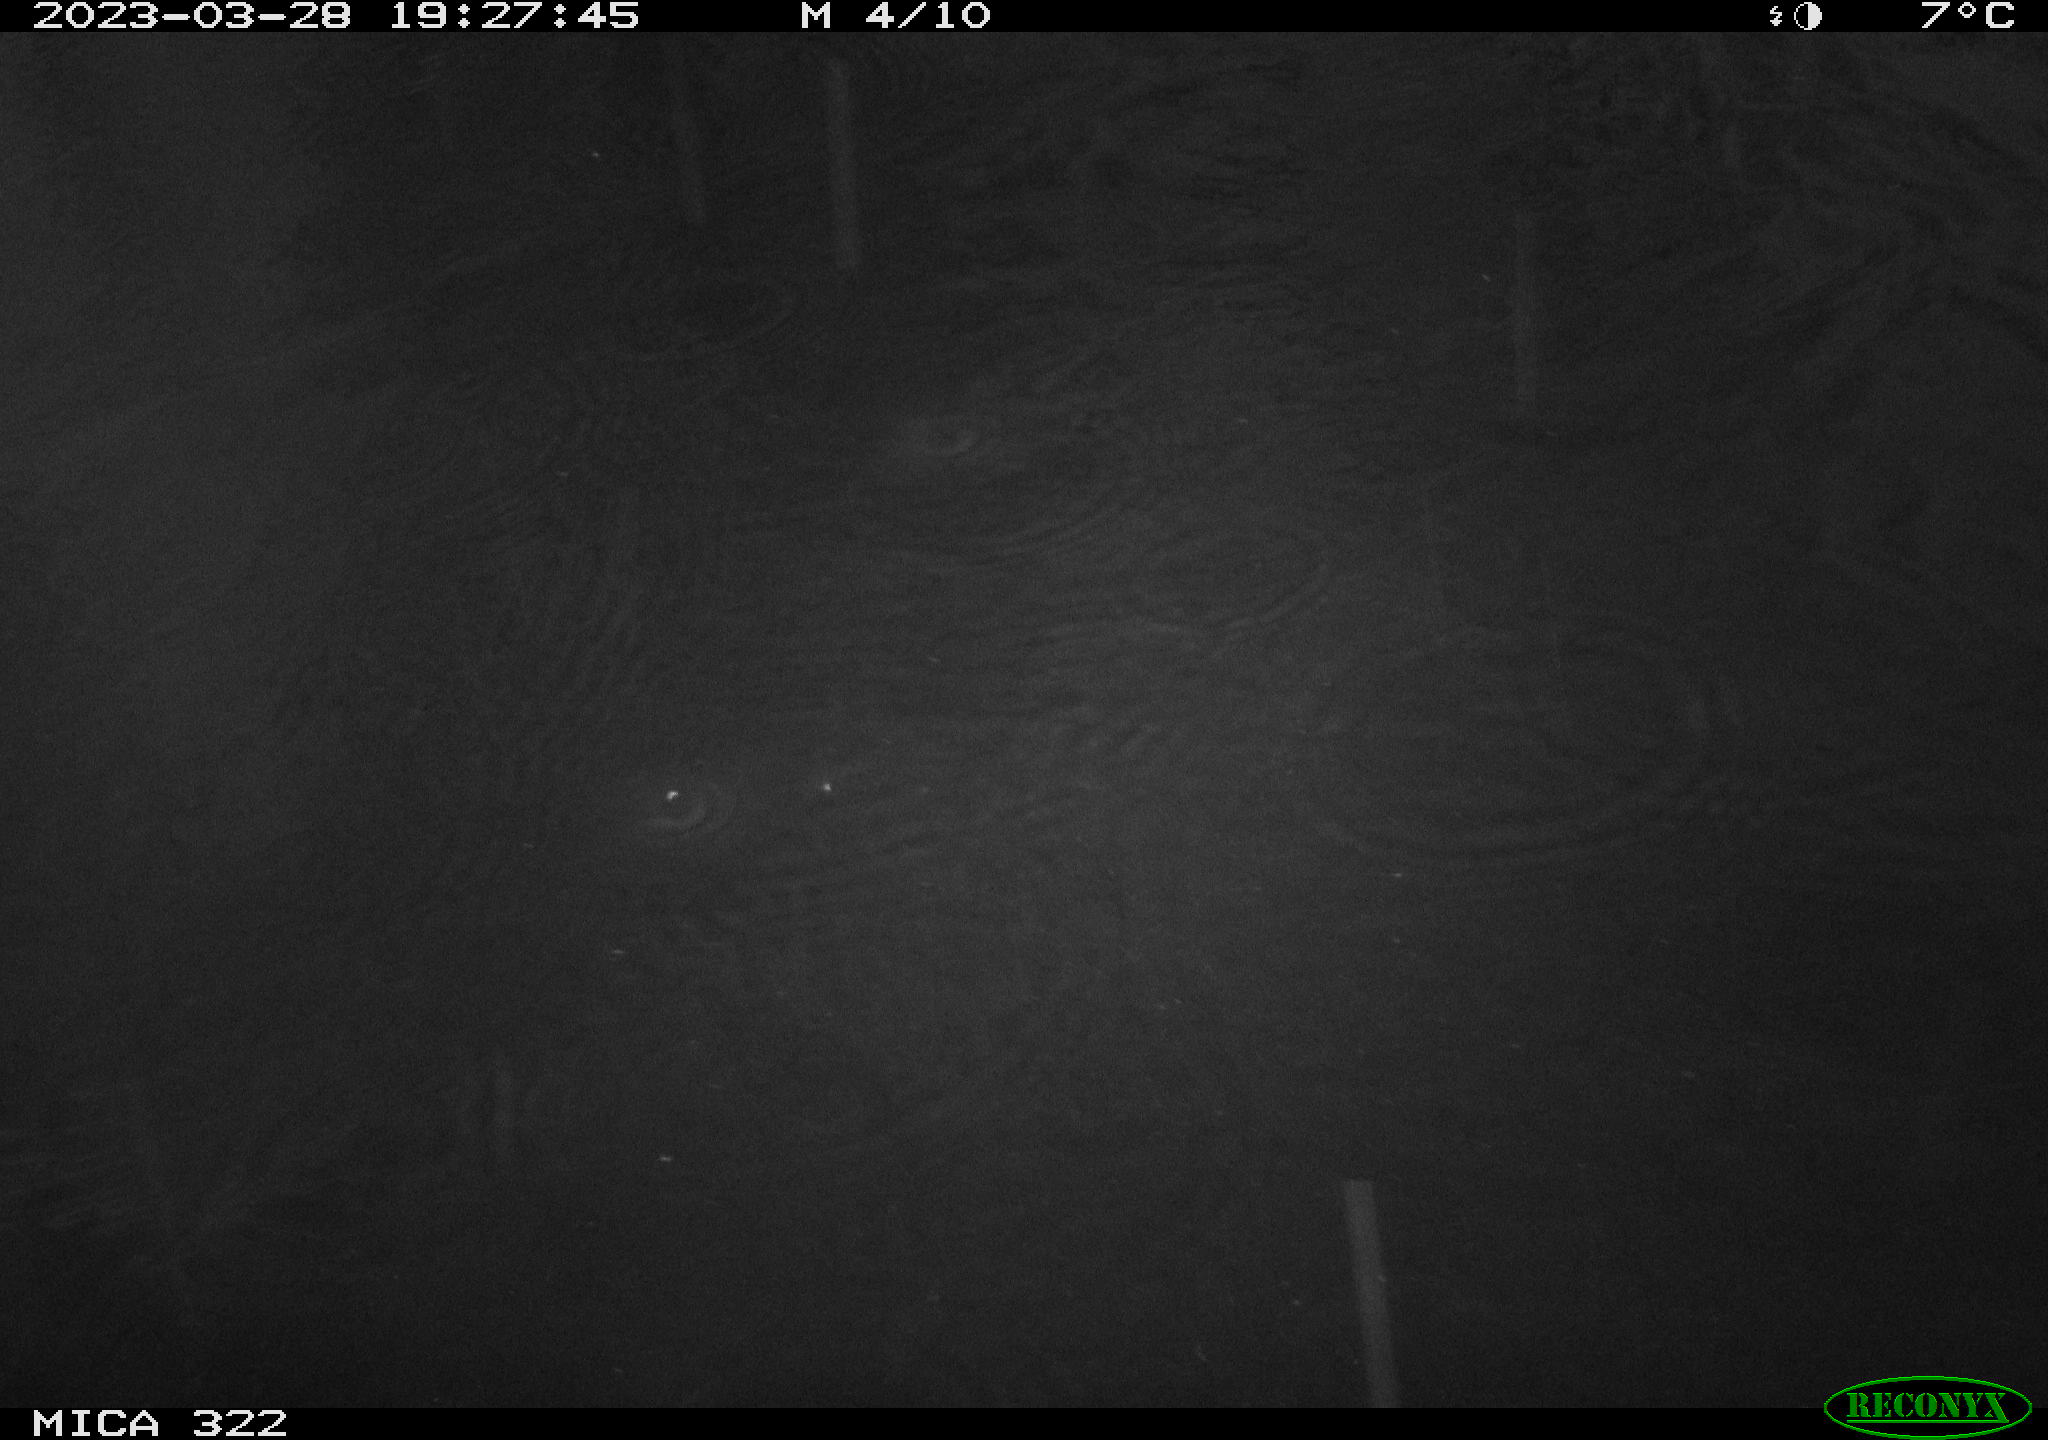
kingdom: Animalia
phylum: Chordata
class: Mammalia
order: Rodentia
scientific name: Rodentia
